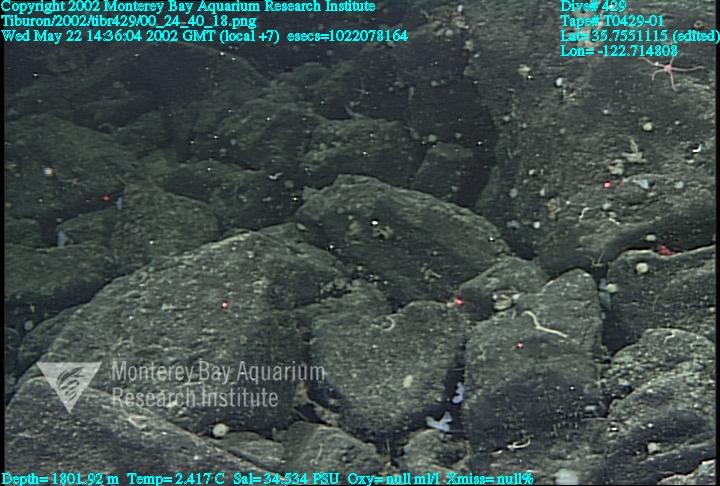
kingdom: Animalia
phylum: Porifera
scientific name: Porifera
